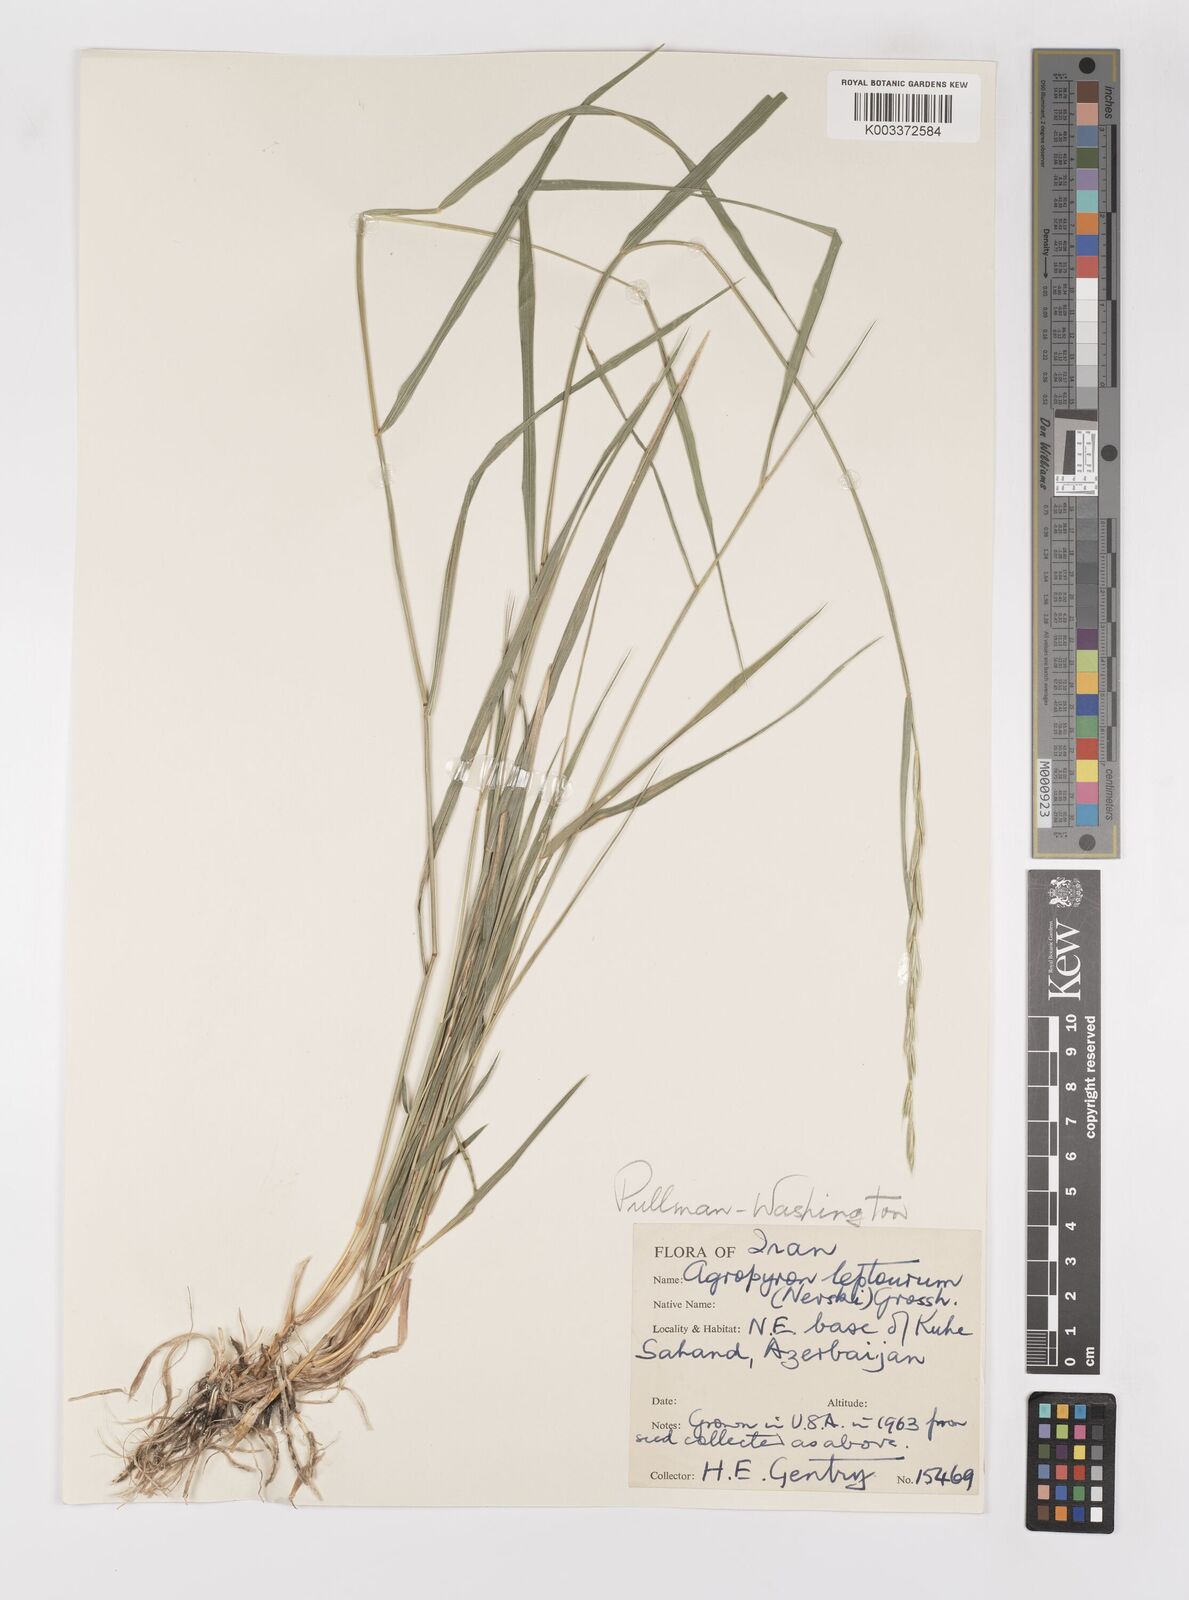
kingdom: Plantae
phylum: Tracheophyta
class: Liliopsida
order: Poales
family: Poaceae
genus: Elymus
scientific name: Elymus transhyrcanus
